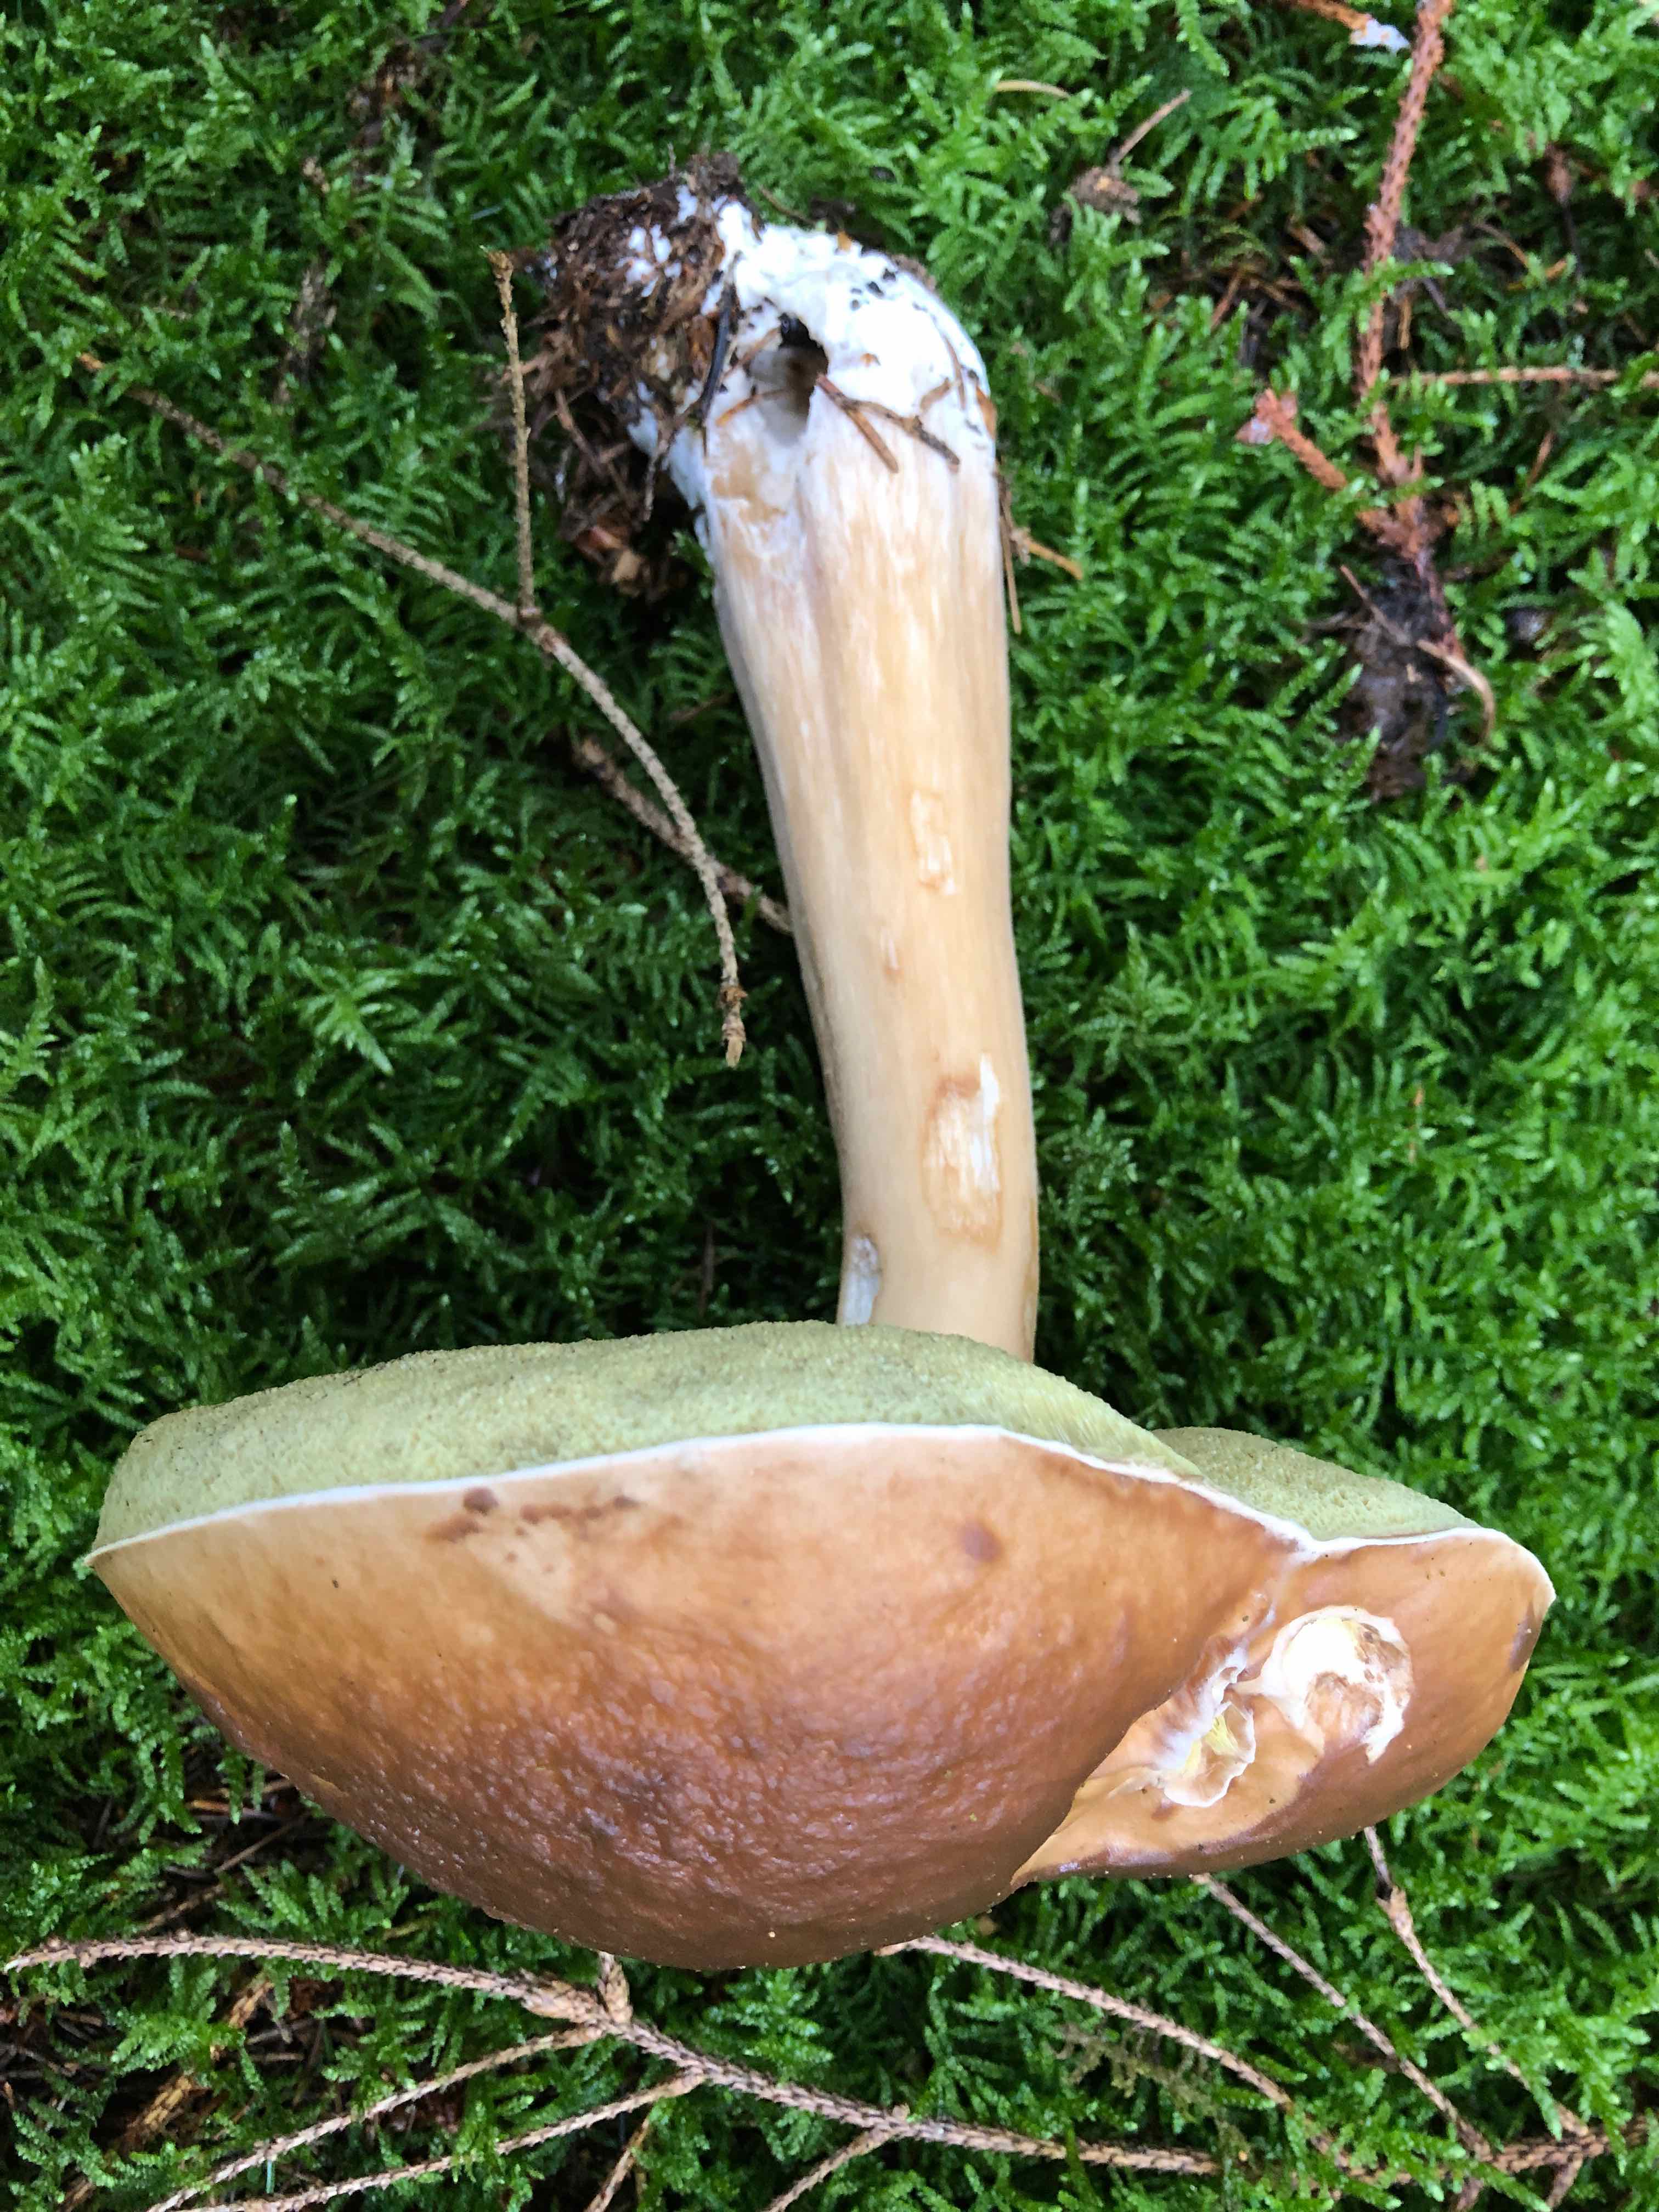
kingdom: Fungi
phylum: Basidiomycota
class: Agaricomycetes
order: Boletales
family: Boletaceae
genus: Boletus
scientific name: Boletus edulis
